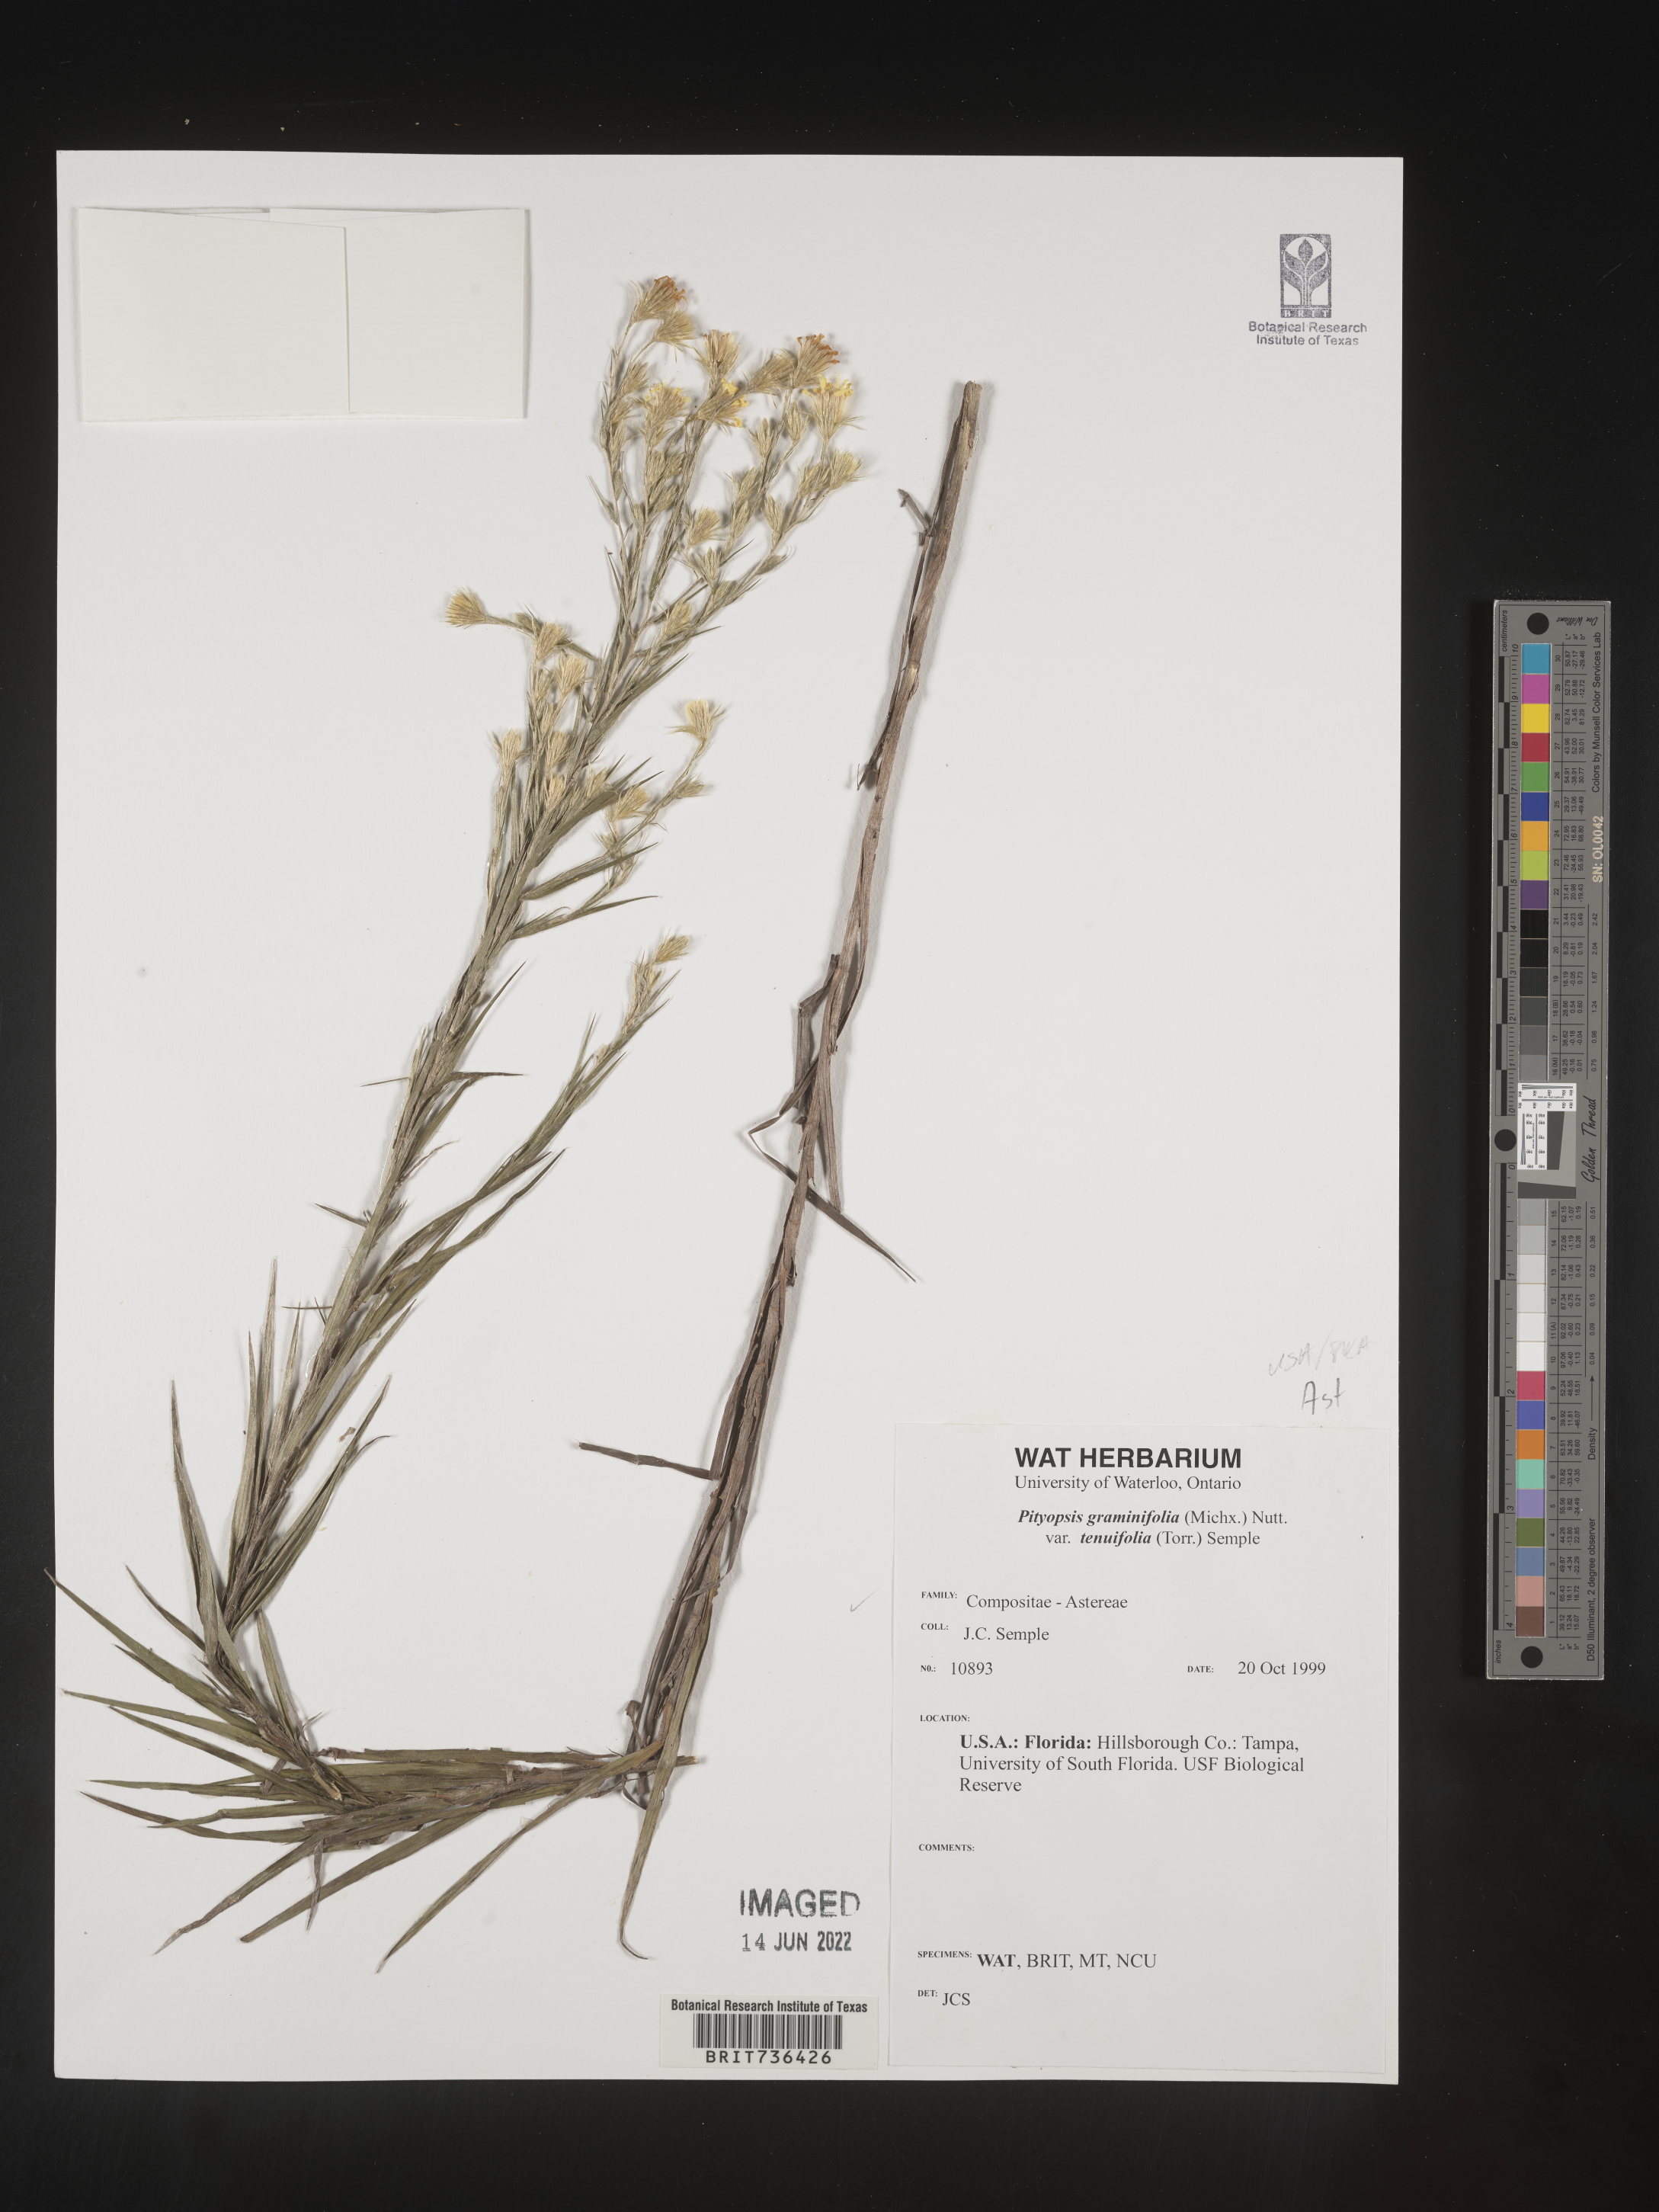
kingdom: Plantae
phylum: Tracheophyta
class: Magnoliopsida
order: Asterales
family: Asteraceae
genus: Pityopsis
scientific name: Pityopsis tracyi
